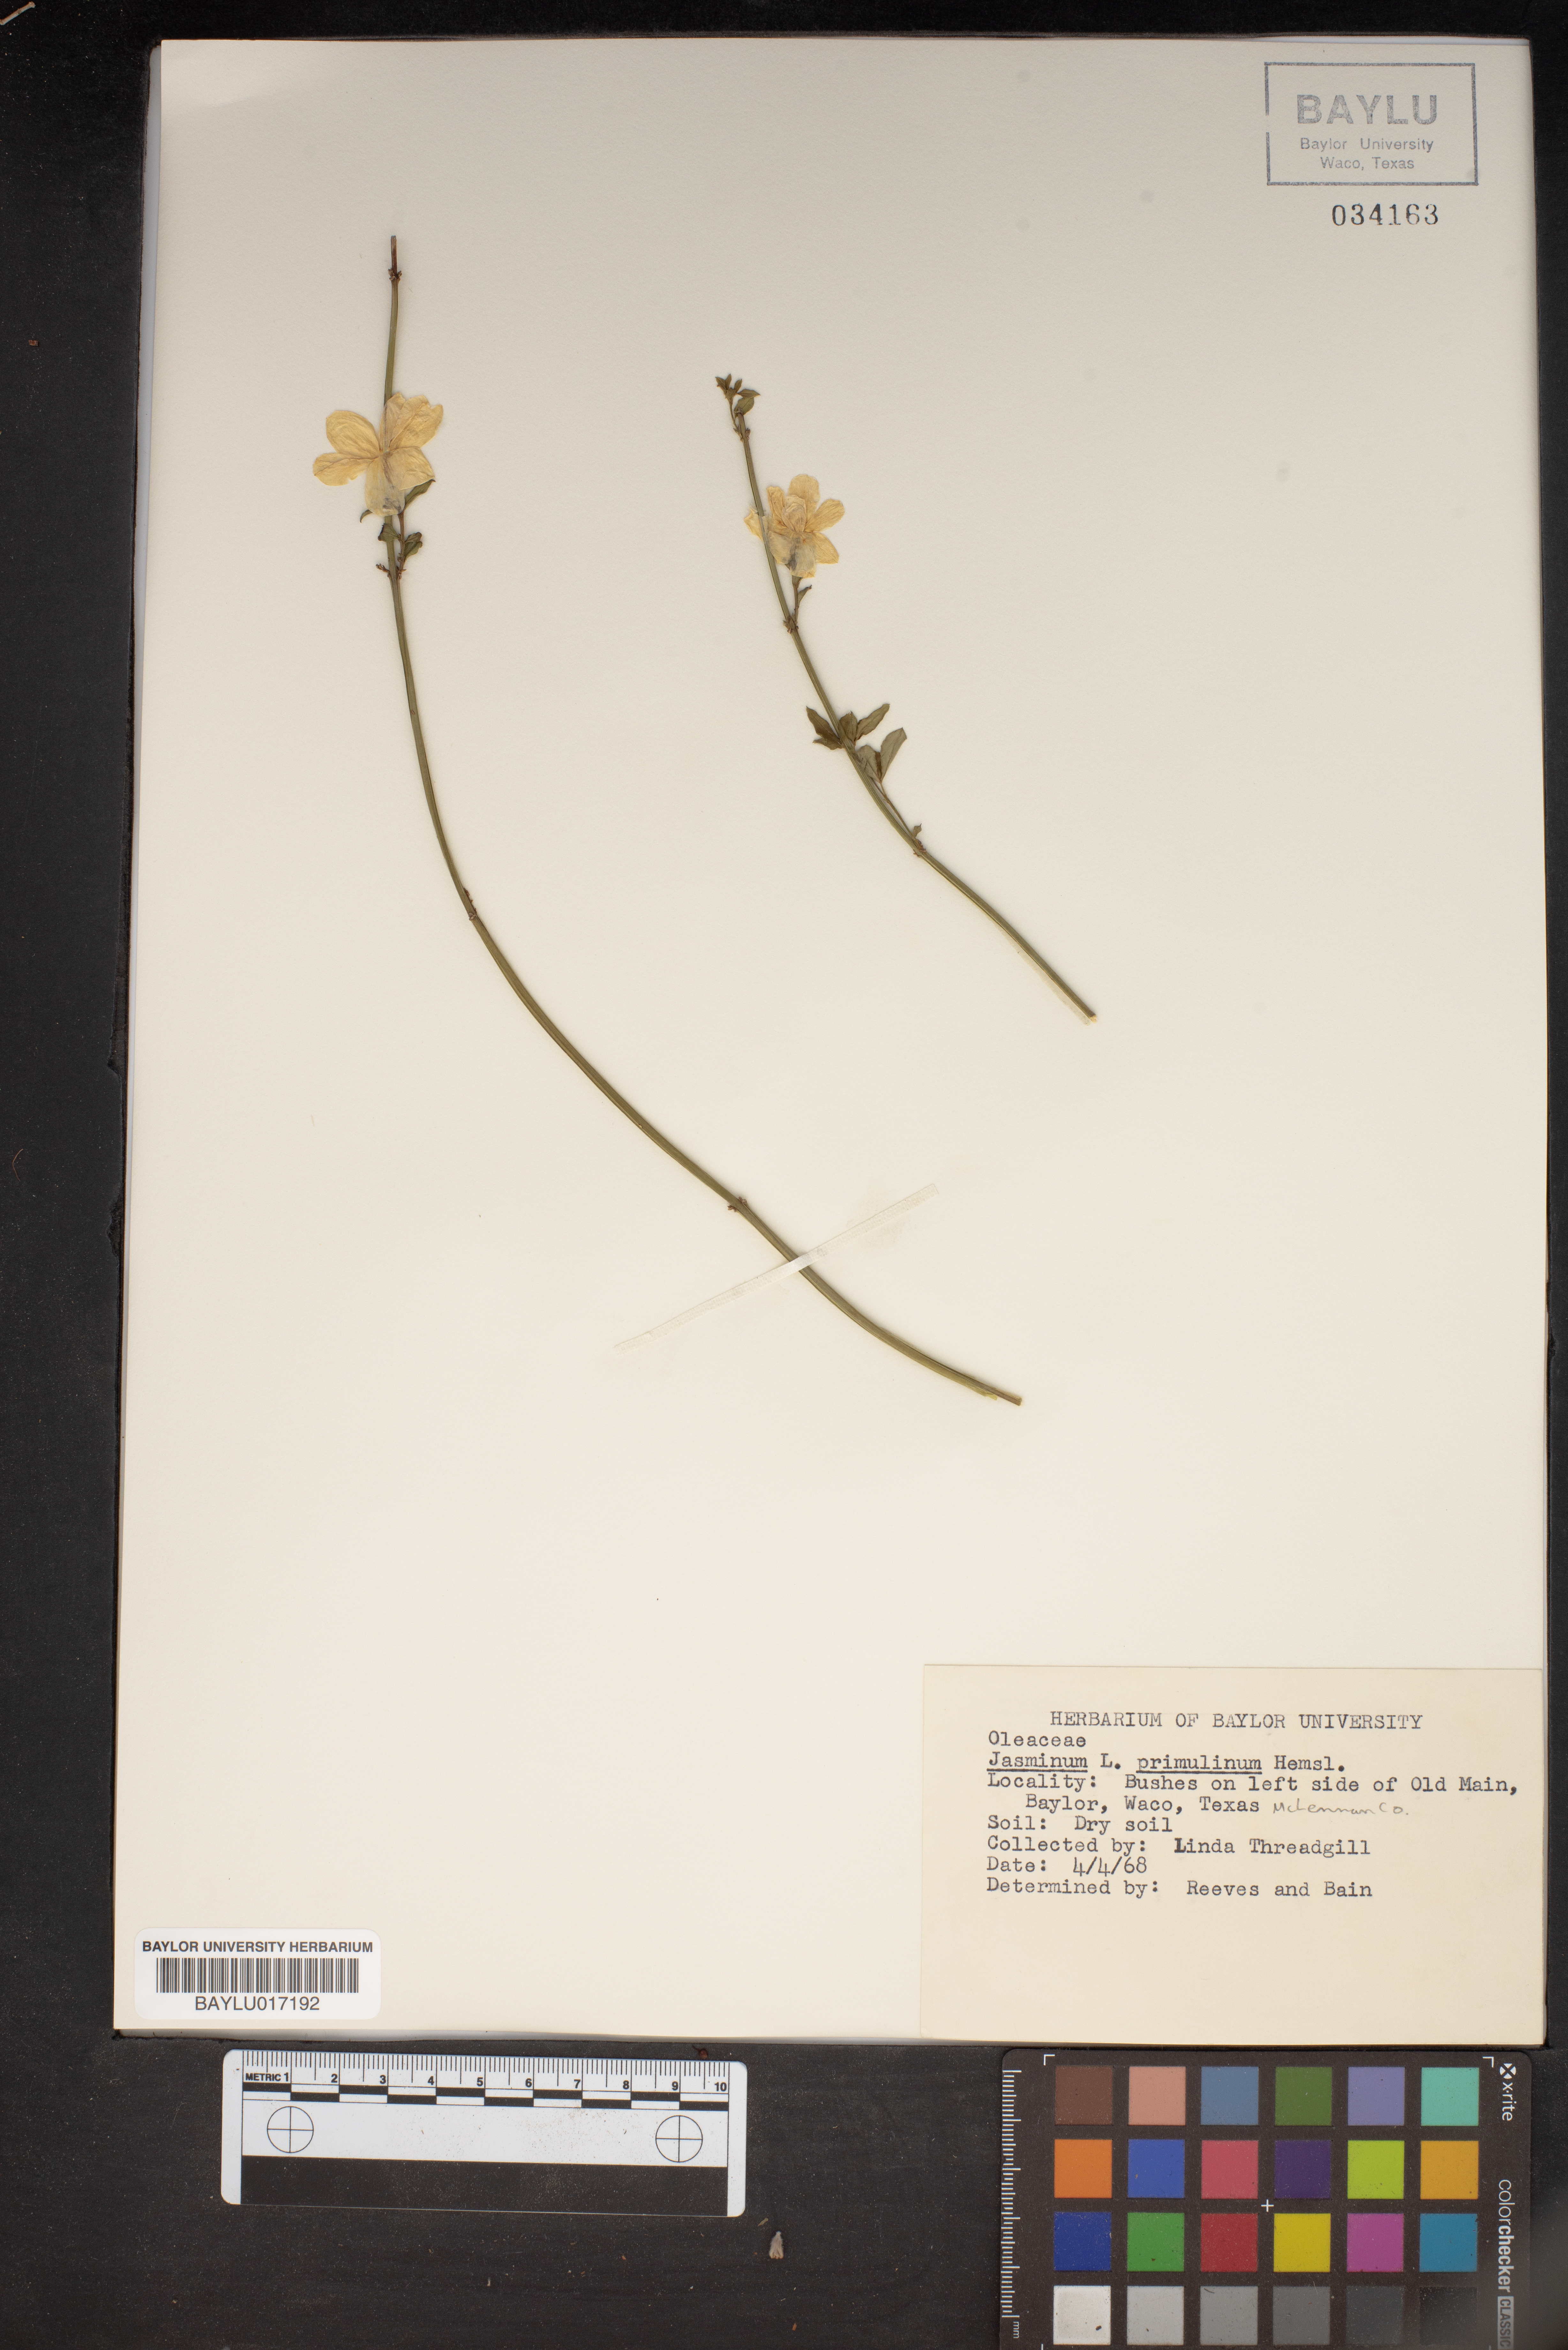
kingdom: Plantae
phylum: Tracheophyta
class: Magnoliopsida
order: Lamiales
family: Oleaceae
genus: Jasminum
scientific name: Jasminum mesnyi
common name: Japanese jasmine
